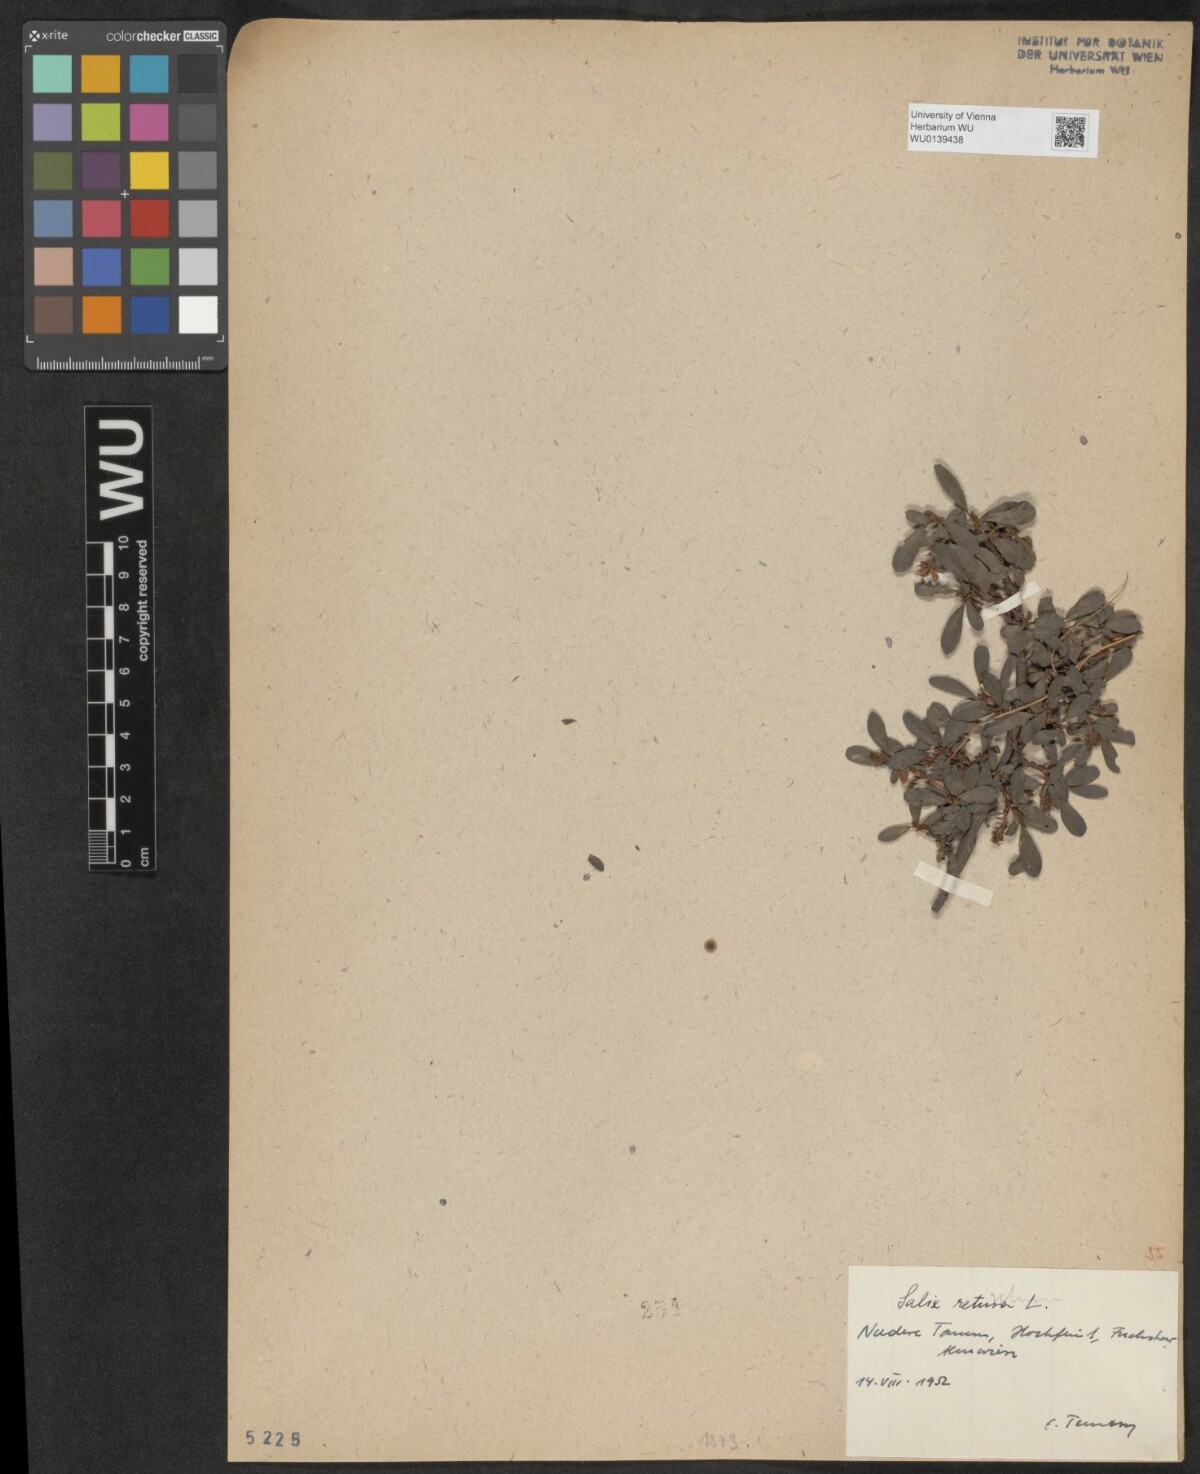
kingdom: Plantae
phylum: Tracheophyta
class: Magnoliopsida
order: Malpighiales
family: Salicaceae
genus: Salix
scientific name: Salix retusa
